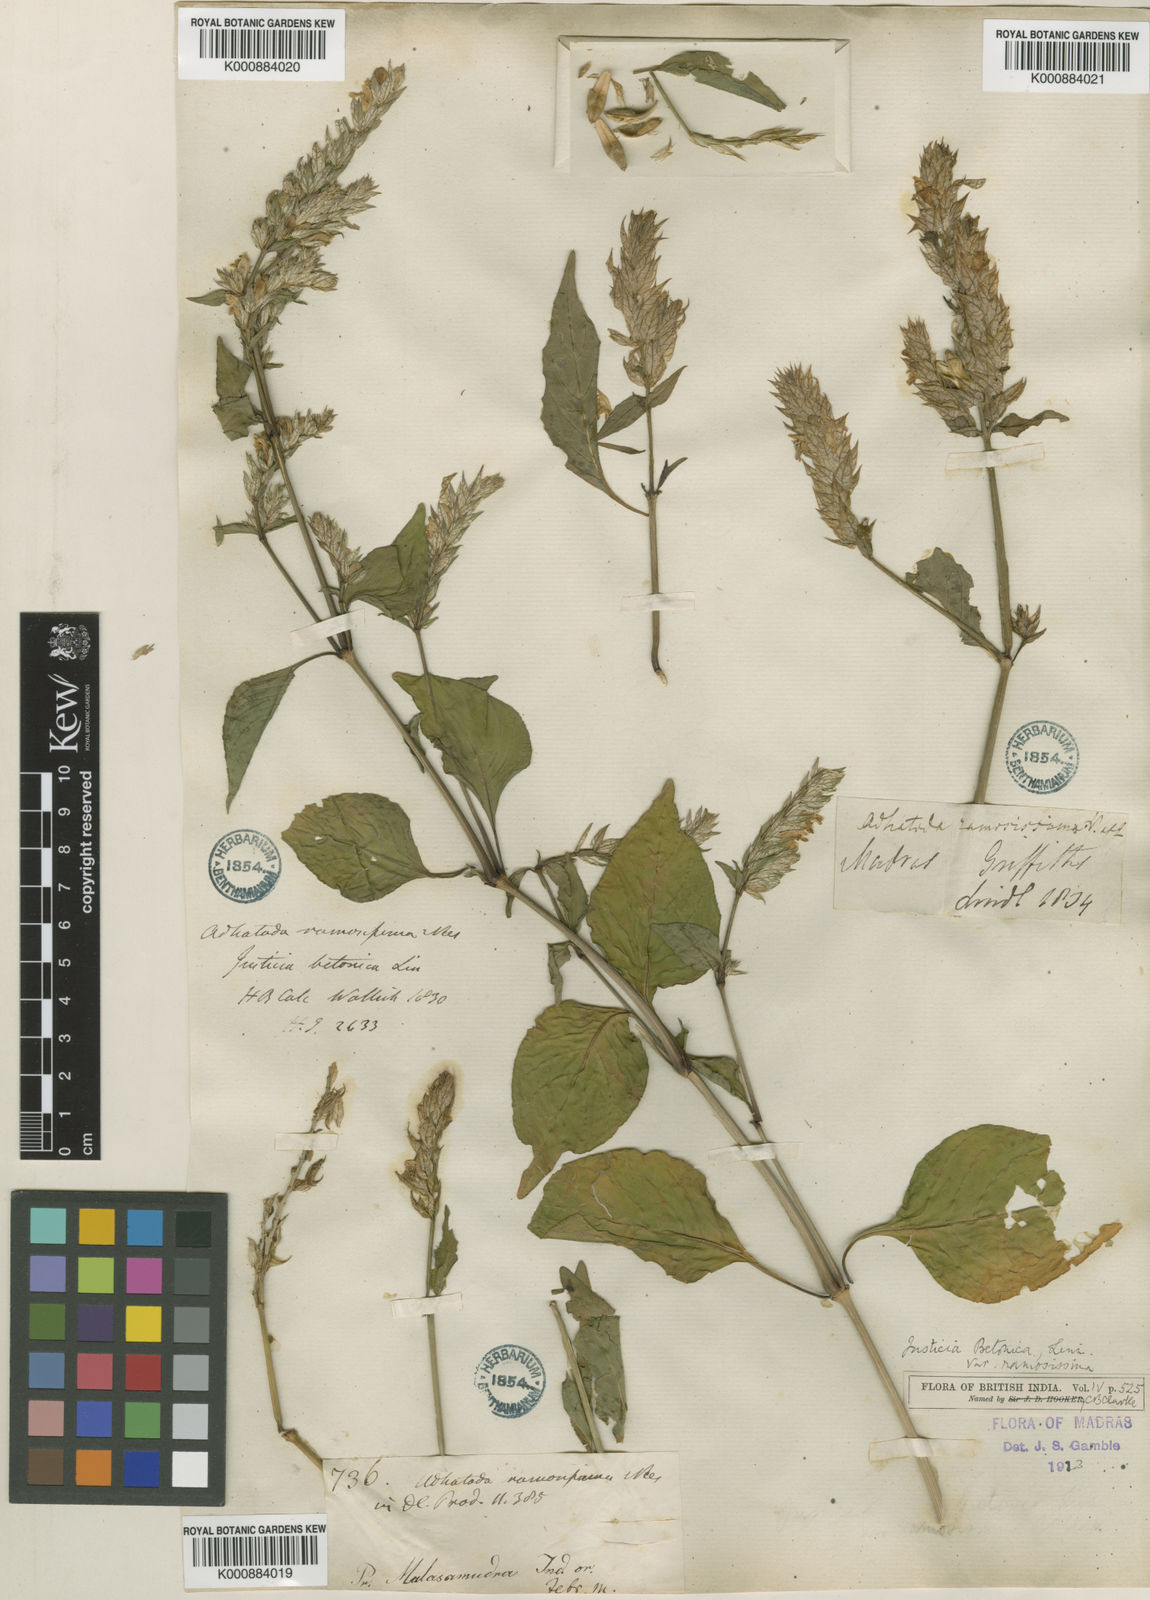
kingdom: Plantae
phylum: Tracheophyta
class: Magnoliopsida
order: Lamiales
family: Acanthaceae
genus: Nicoteba
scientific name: Nicoteba betonica
